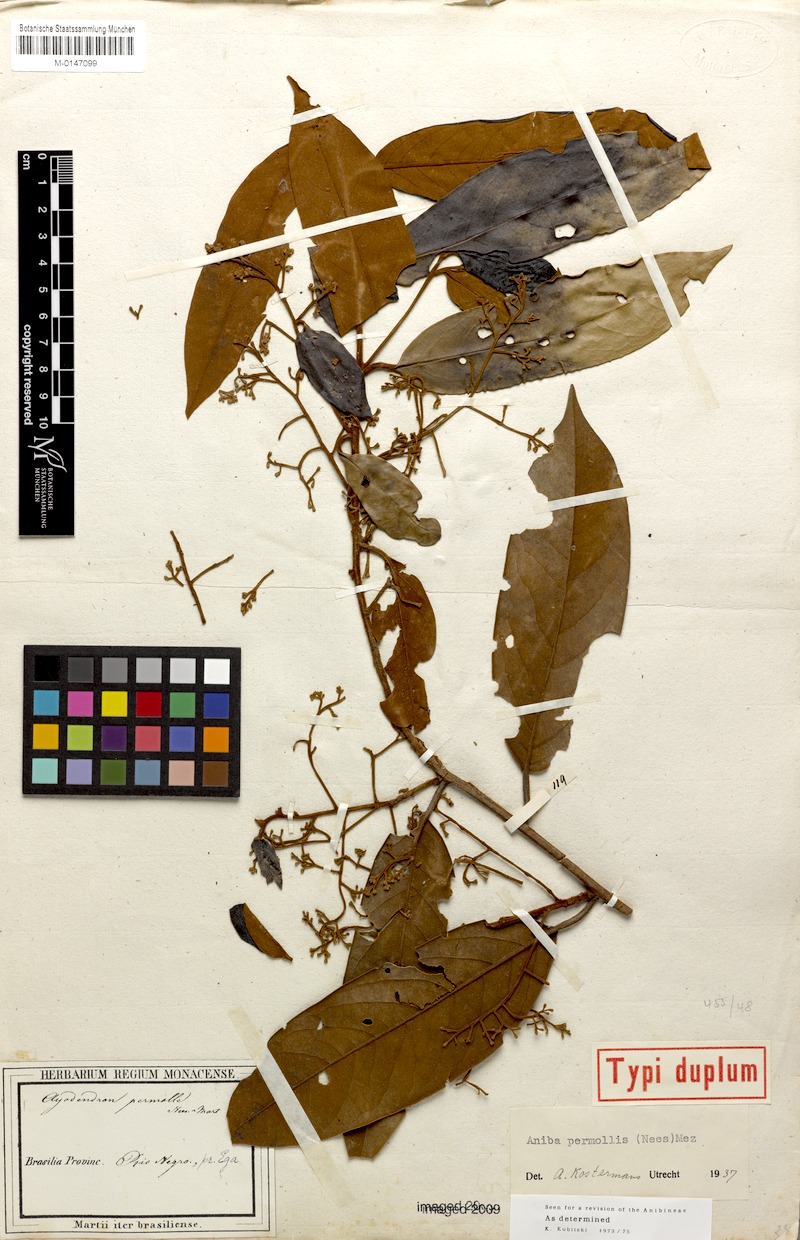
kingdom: Plantae
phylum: Tracheophyta
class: Magnoliopsida
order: Laurales
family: Lauraceae
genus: Aniba
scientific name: Aniba permollis
